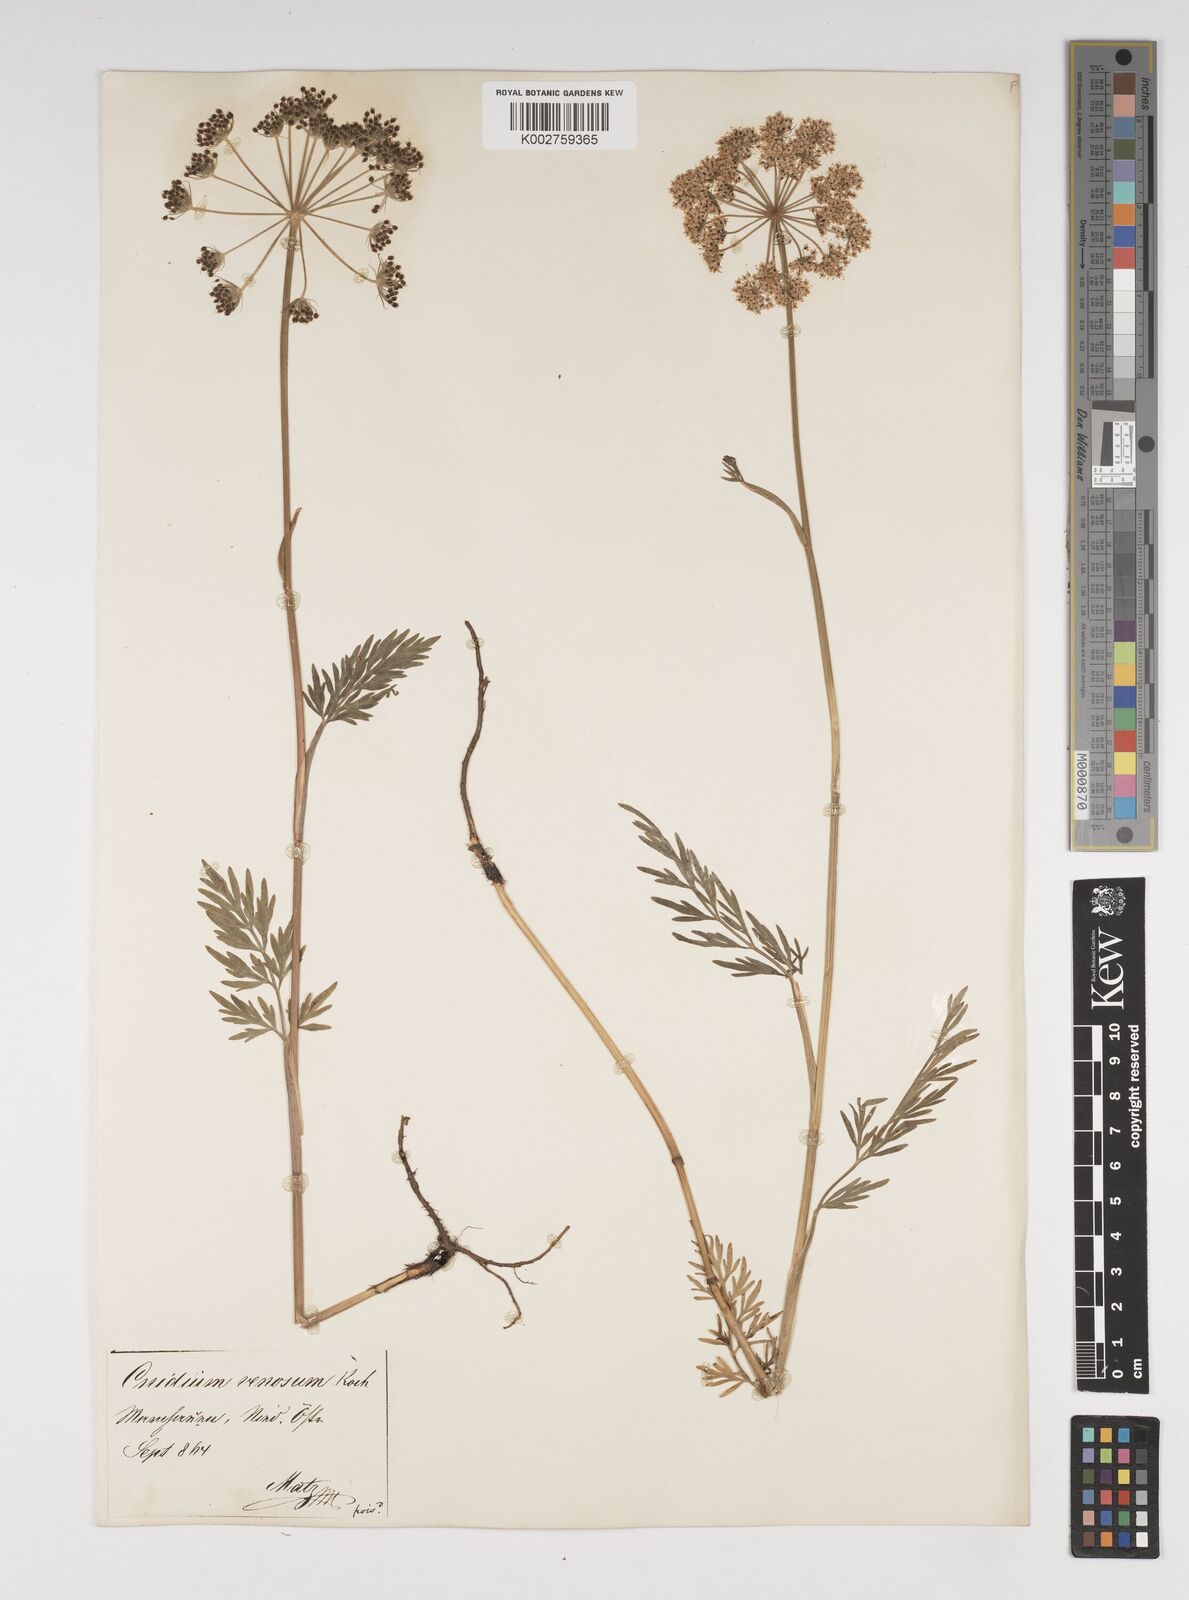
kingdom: Plantae
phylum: Tracheophyta
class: Magnoliopsida
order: Apiales
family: Apiaceae
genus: Kadenia
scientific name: Kadenia dubia
